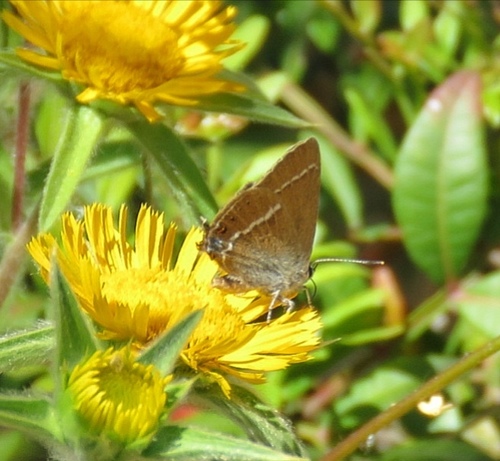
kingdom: Animalia
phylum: Arthropoda
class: Insecta
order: Lepidoptera
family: Lycaenidae
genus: Tuttiola
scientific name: Tuttiola spini
